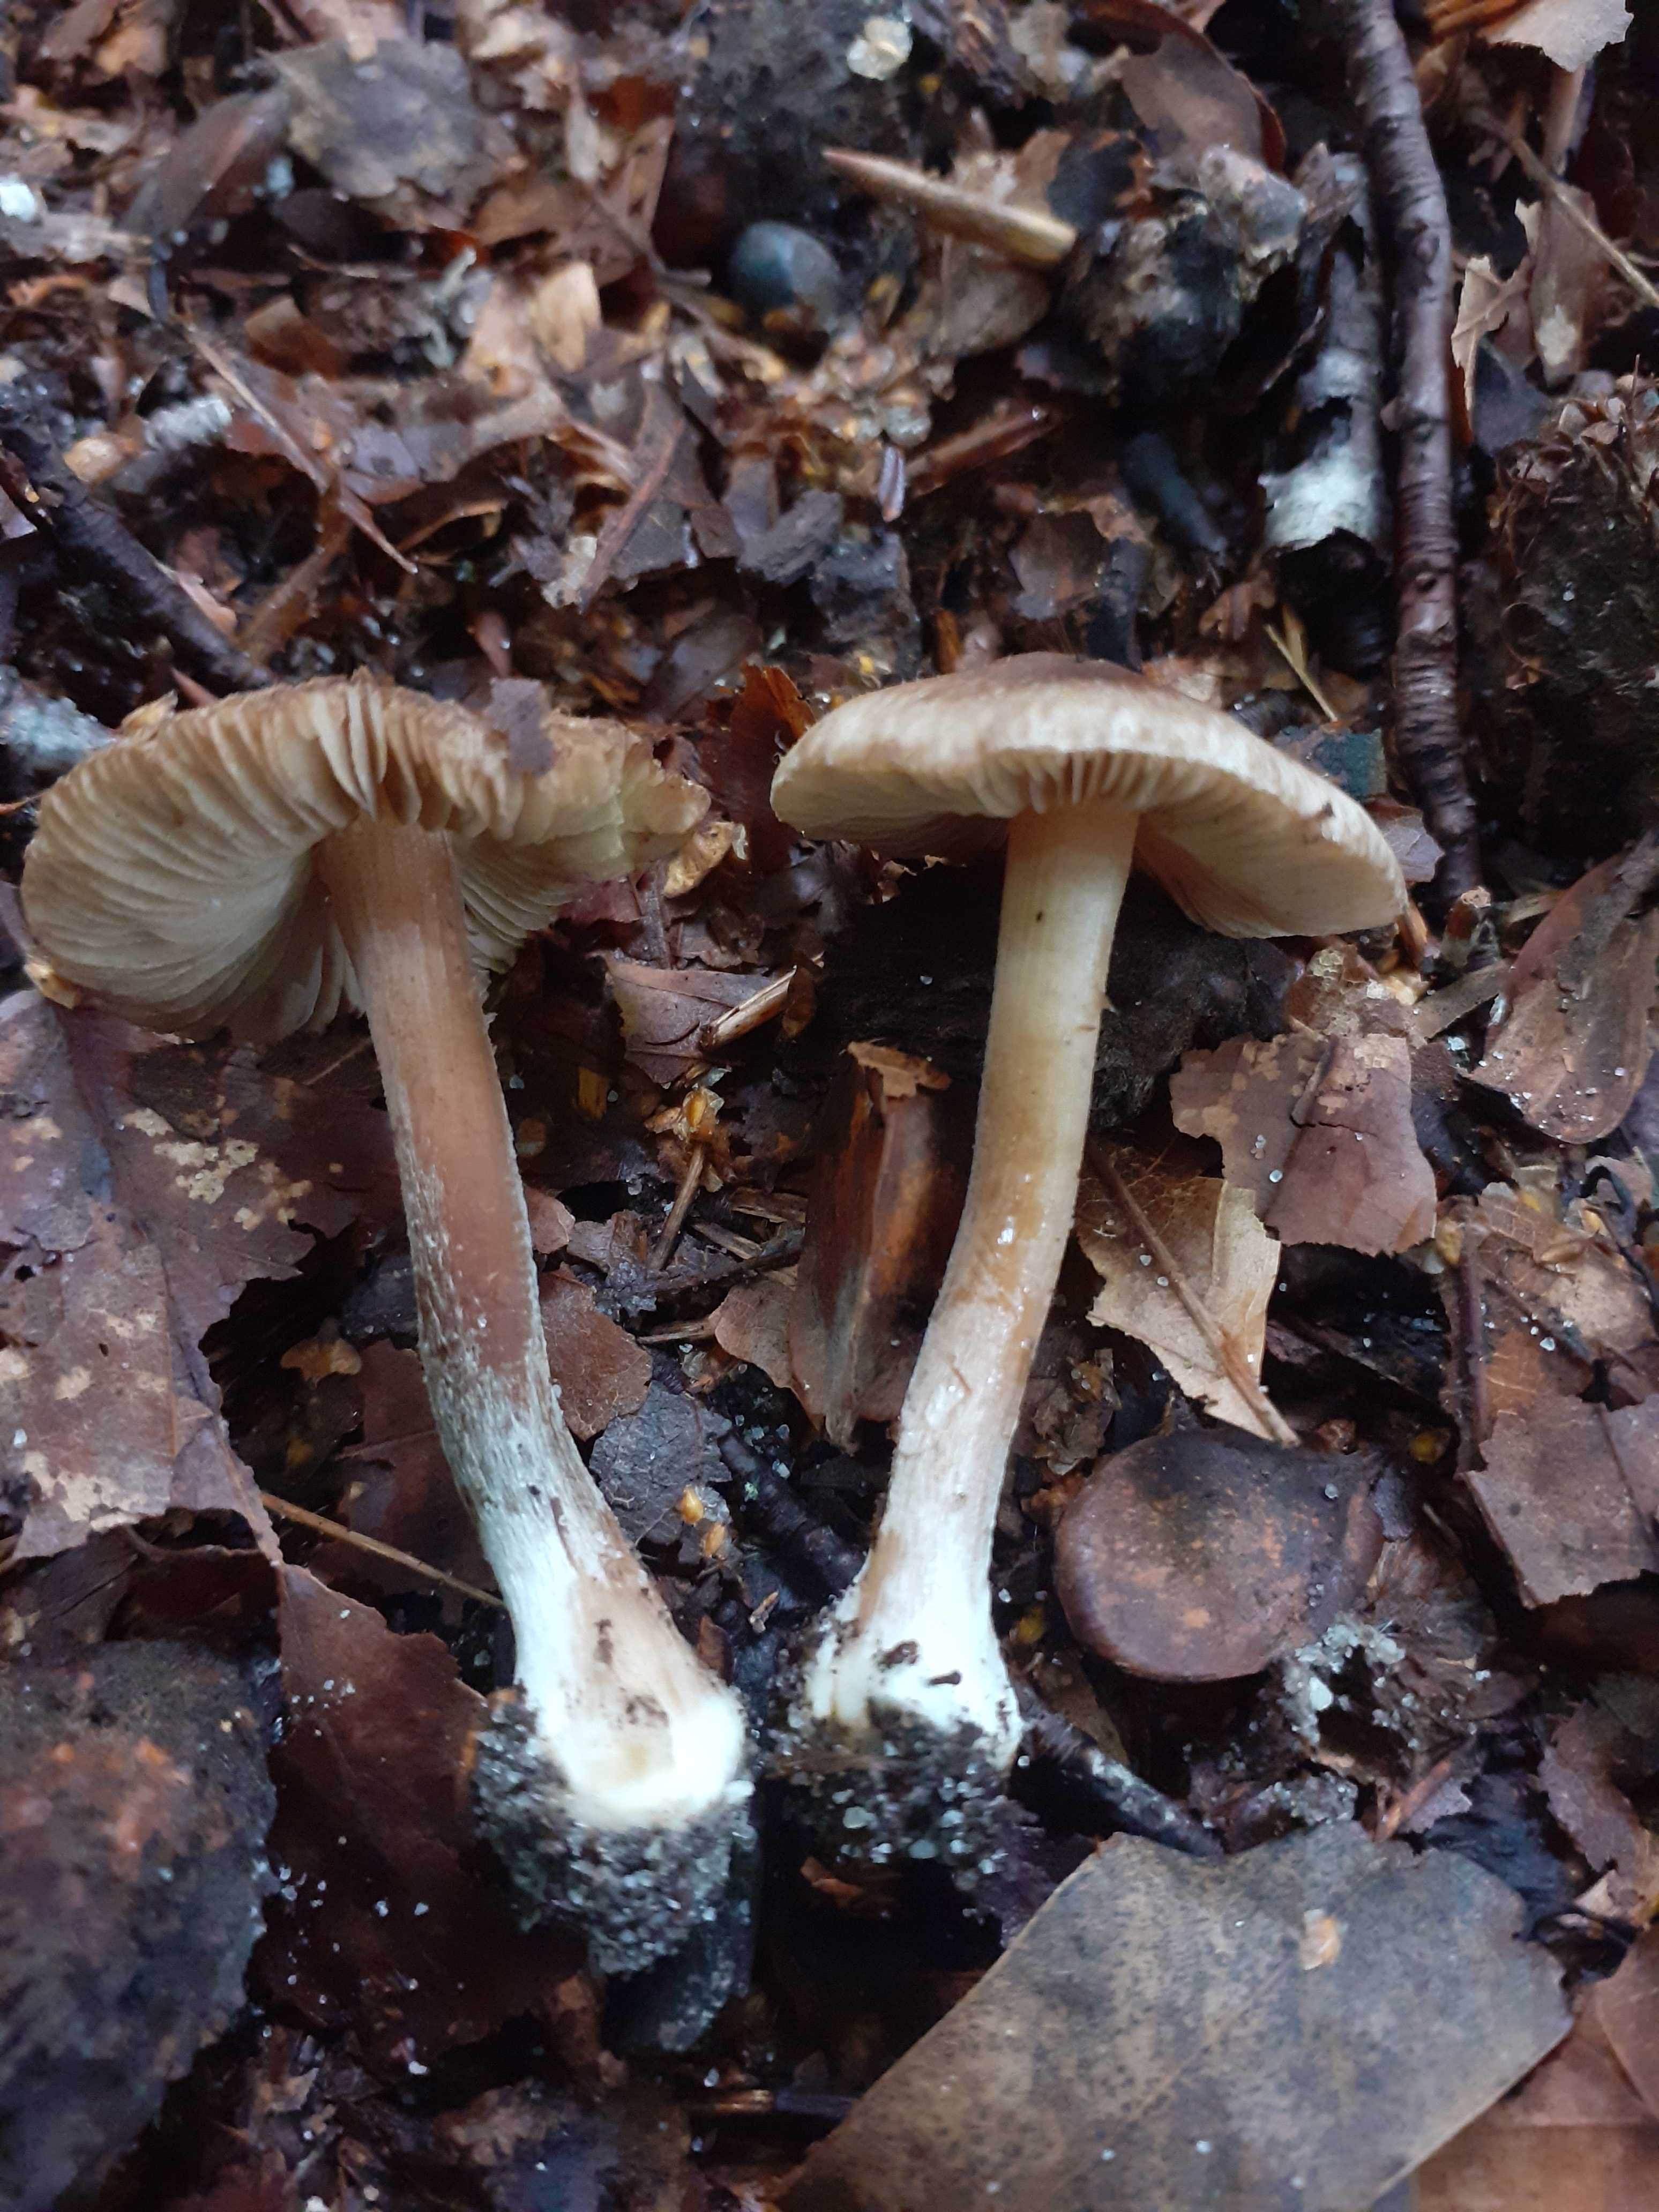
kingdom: Fungi
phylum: Basidiomycota
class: Agaricomycetes
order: Agaricales
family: Inocybaceae
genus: Inocybe
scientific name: Inocybe
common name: trævlhat
